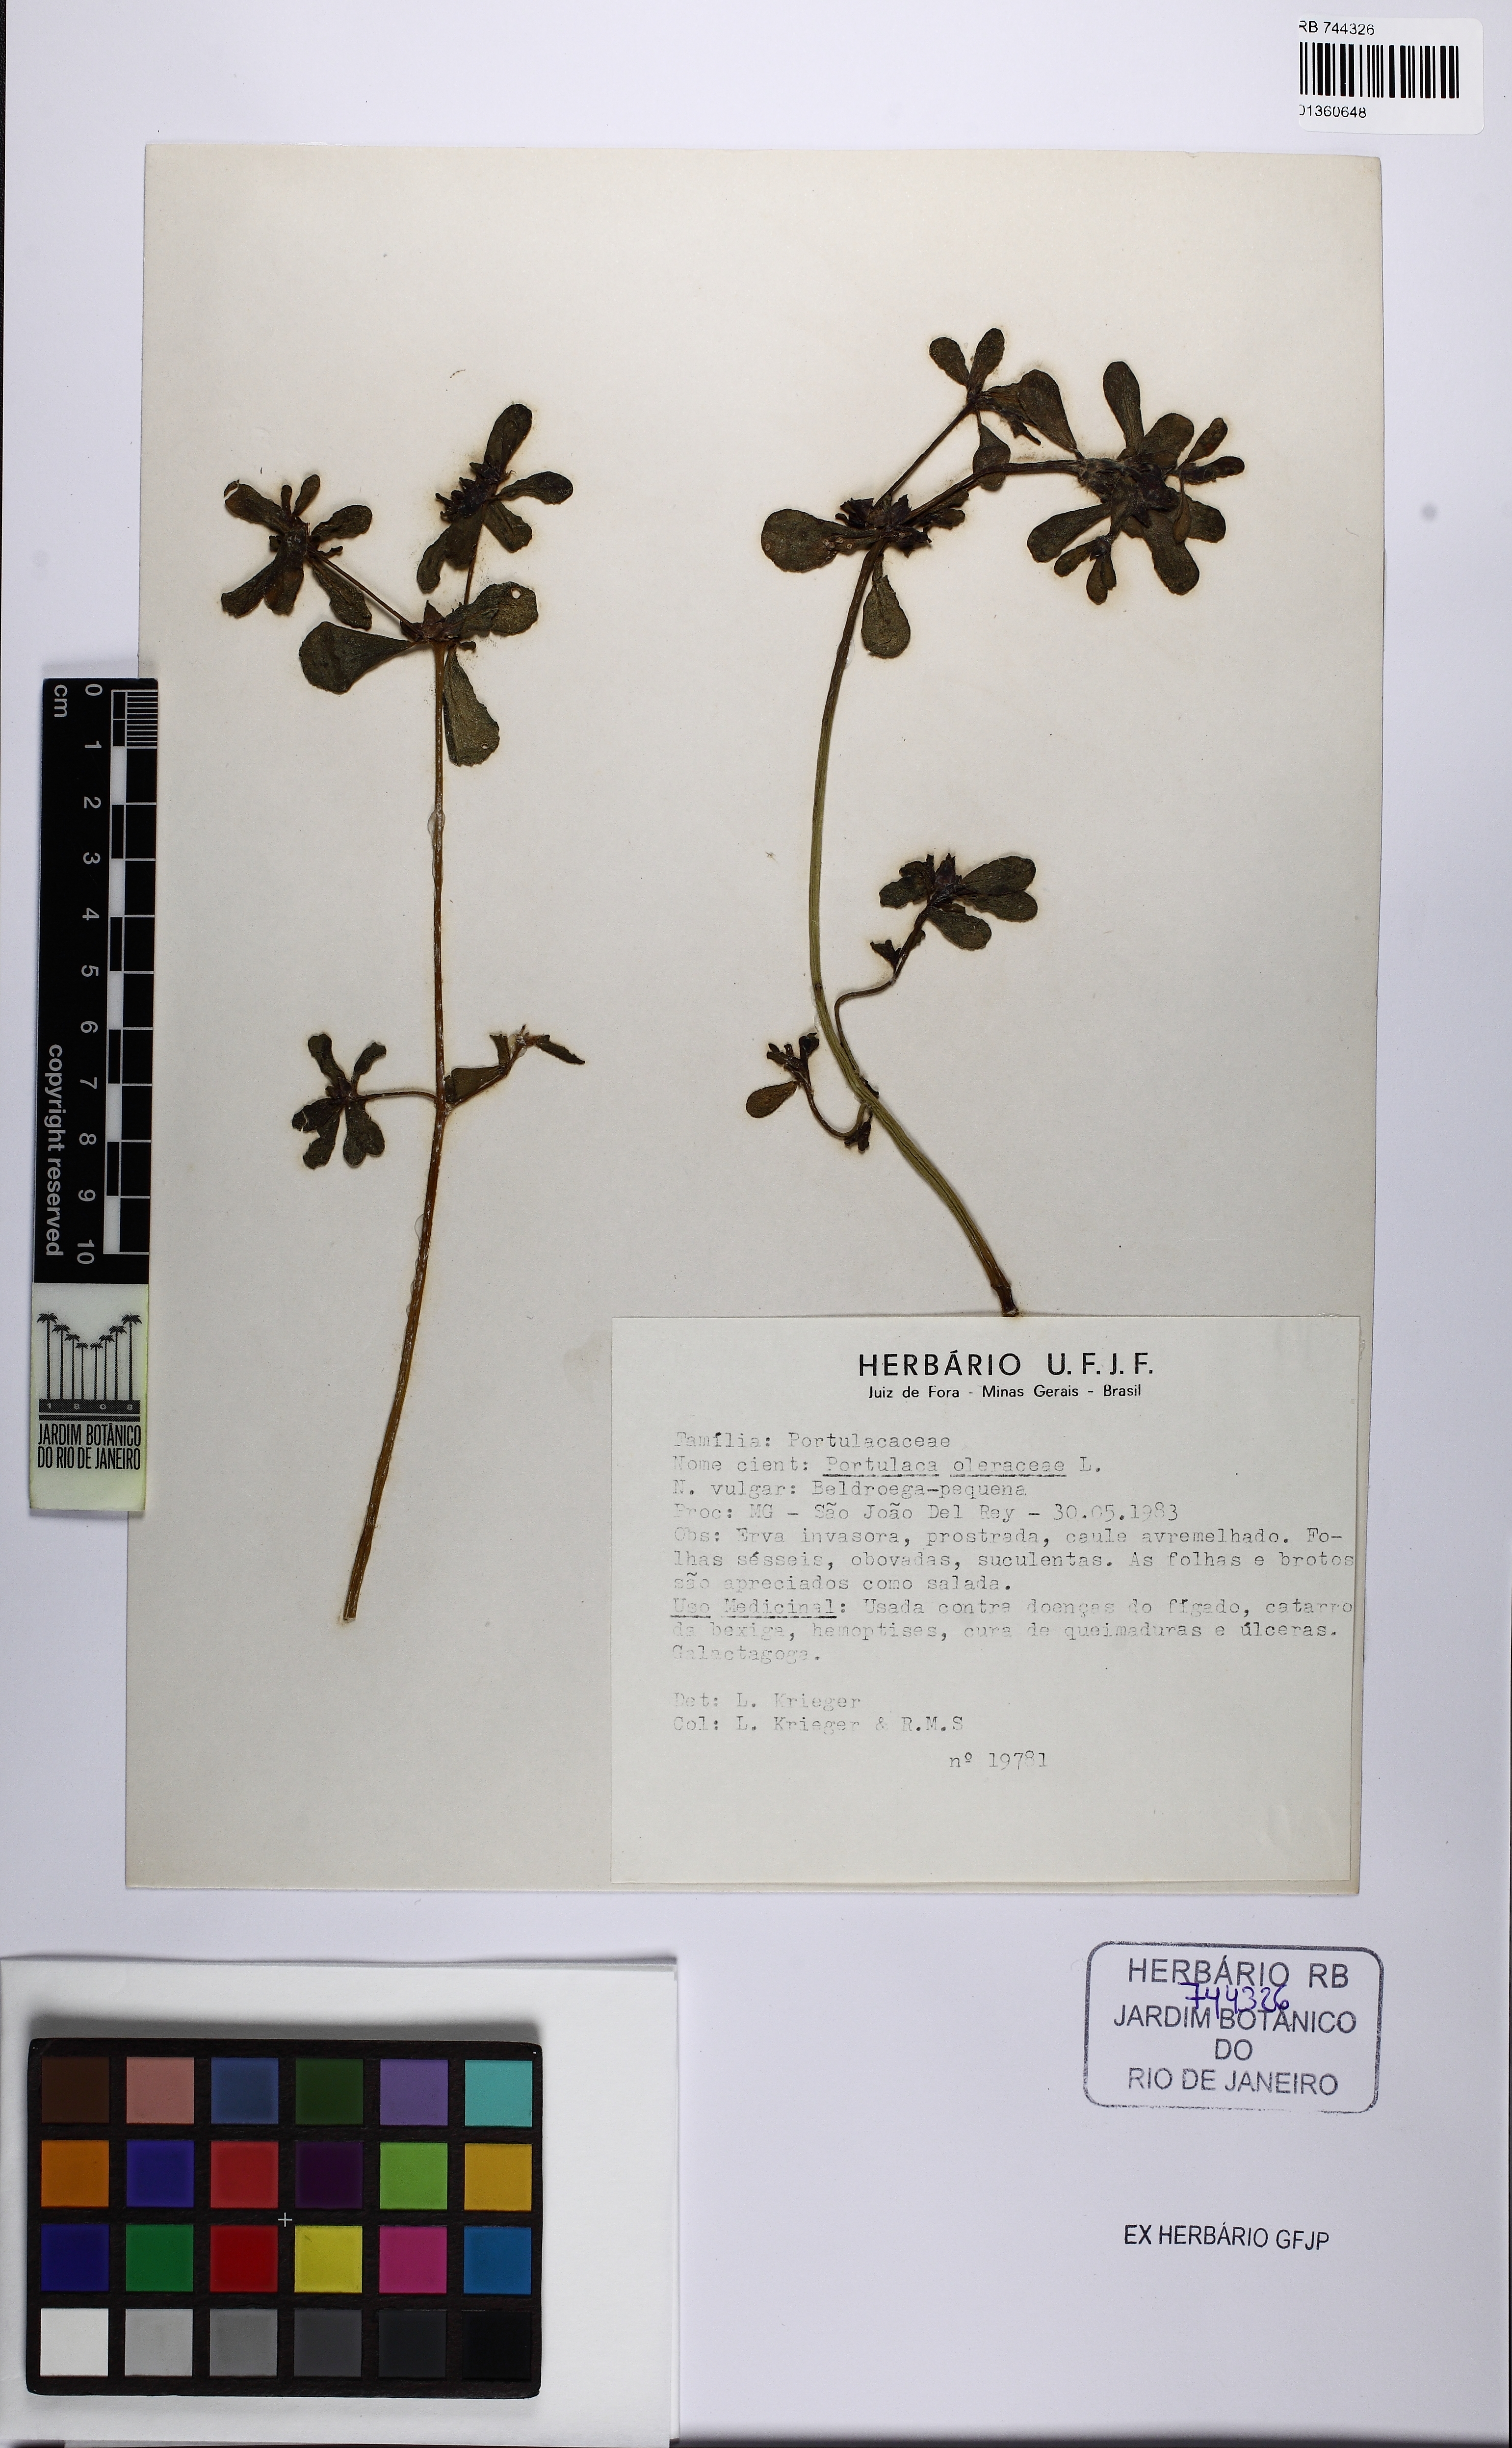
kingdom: Plantae
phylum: Tracheophyta
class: Magnoliopsida
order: Caryophyllales
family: Portulacaceae
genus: Portulaca
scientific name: Portulaca oleracea
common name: Common purslane
